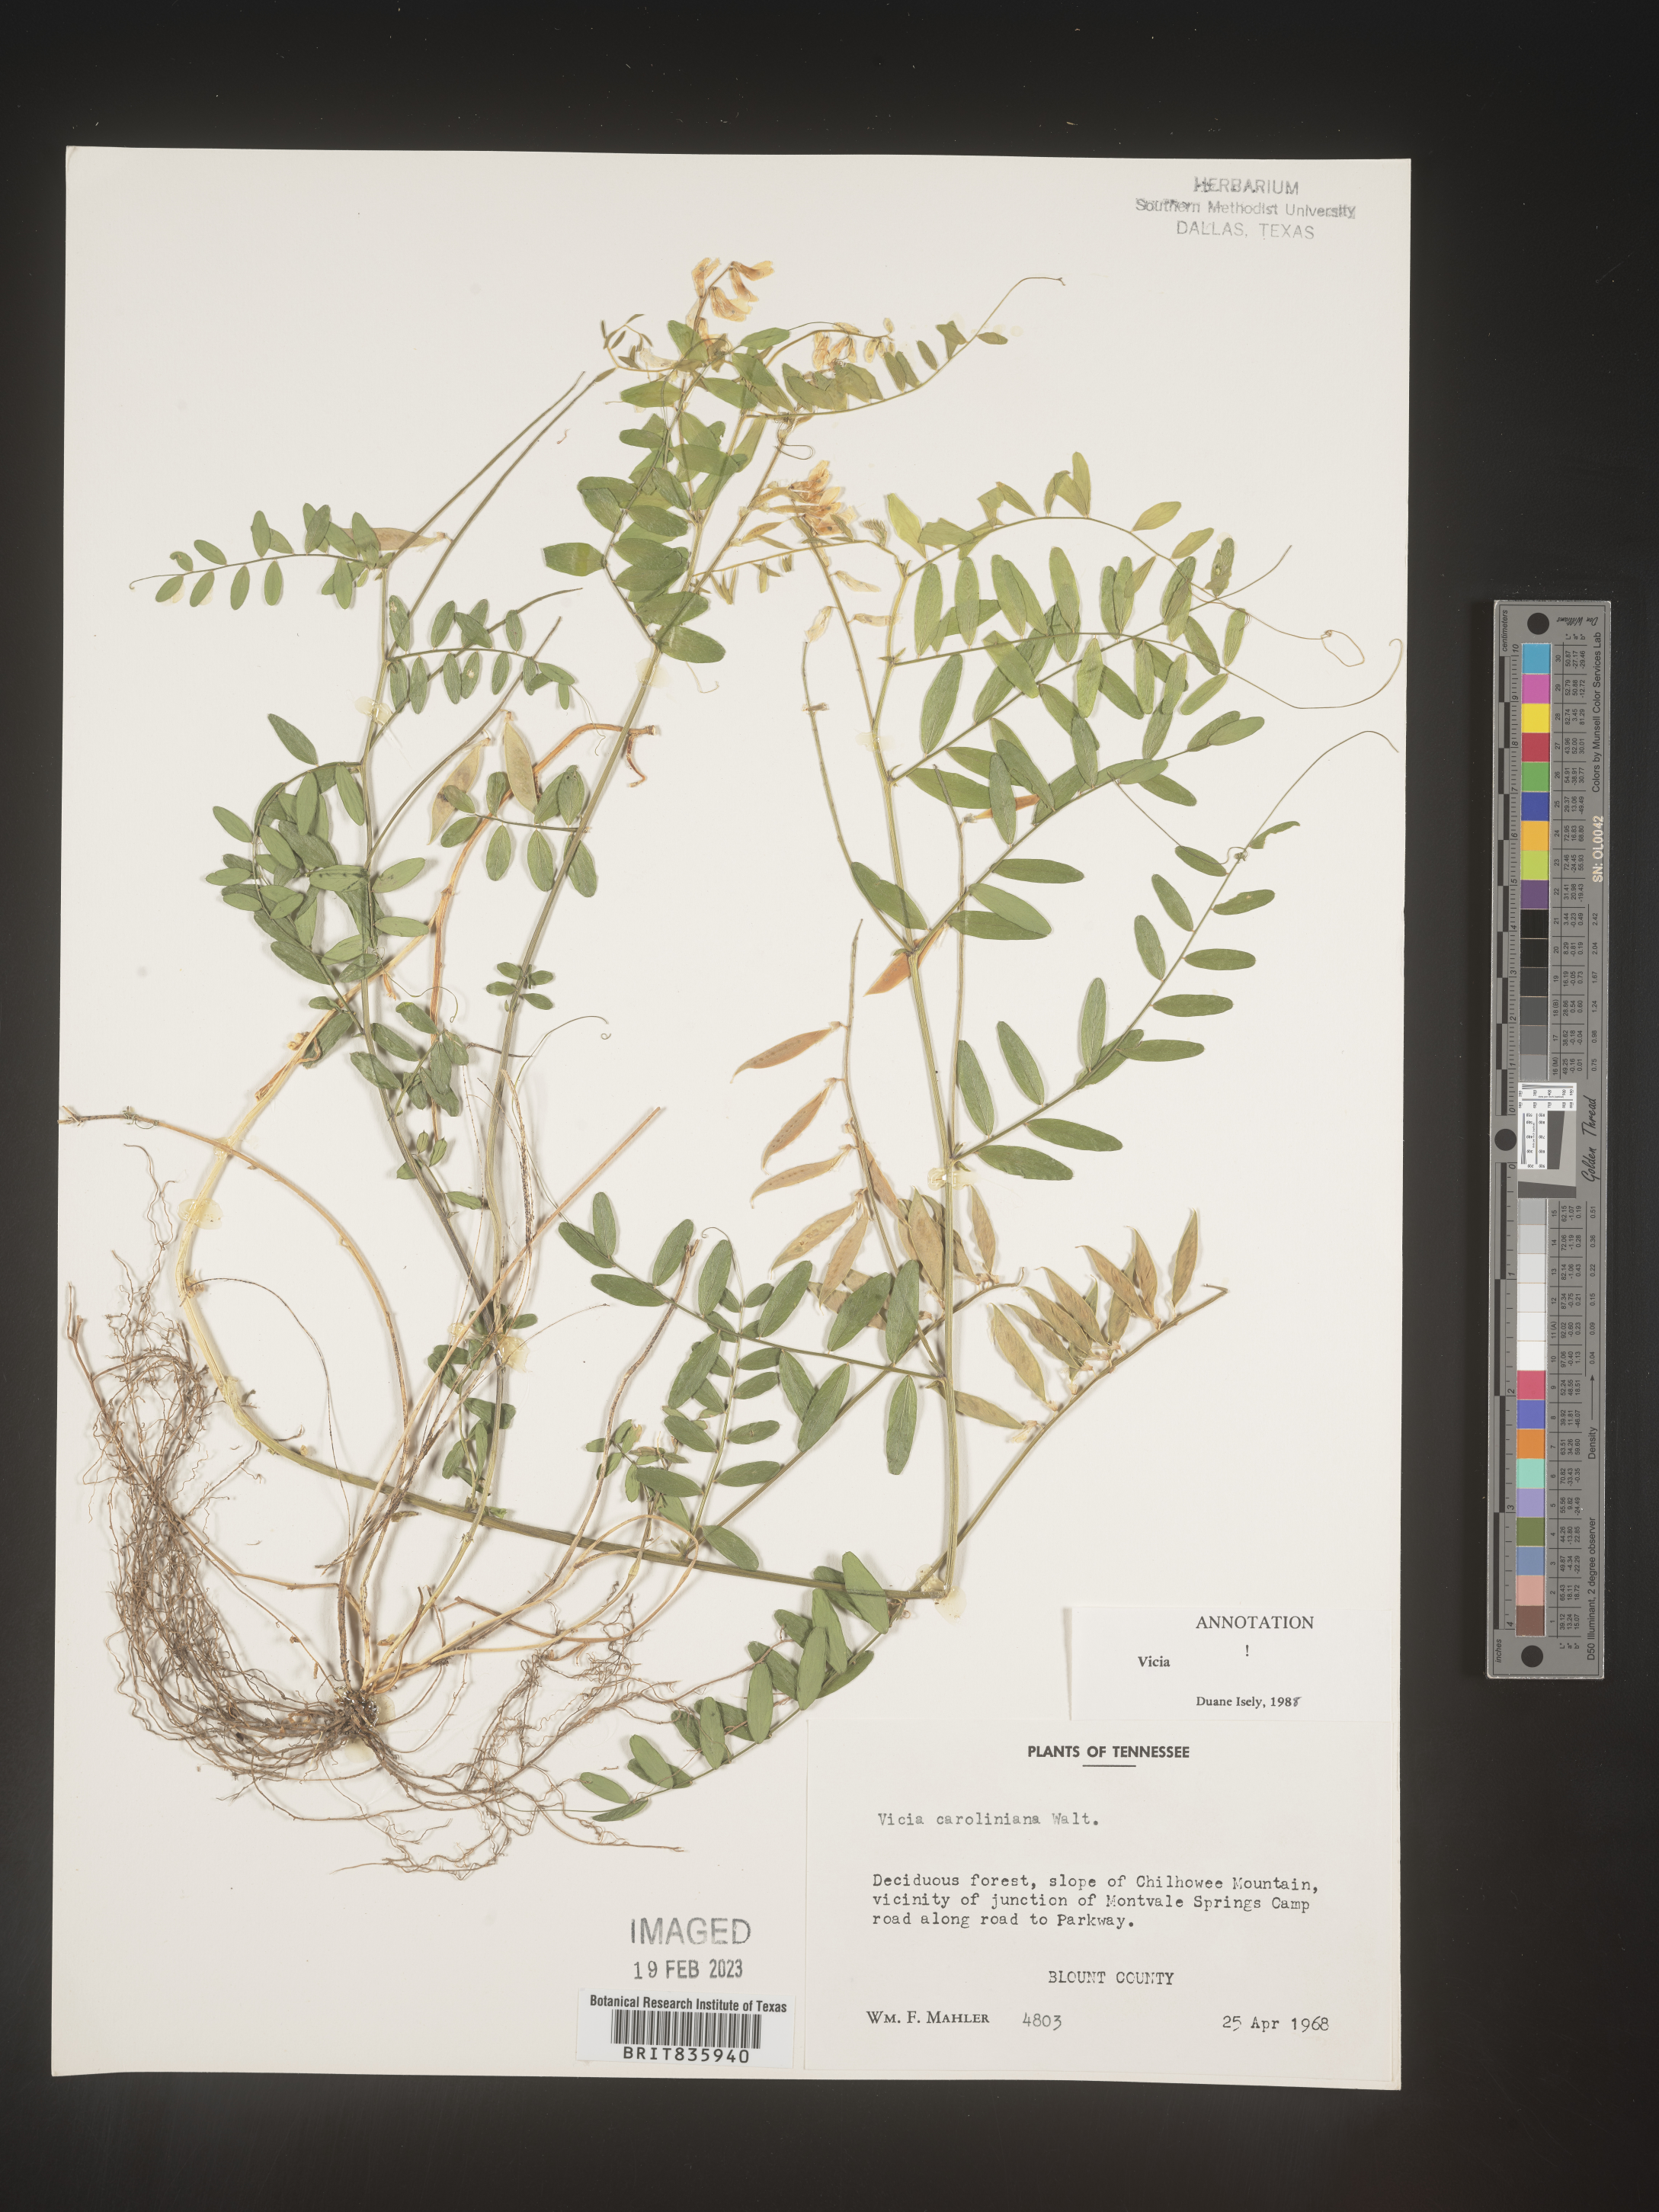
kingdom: Plantae
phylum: Tracheophyta
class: Magnoliopsida
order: Fabales
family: Fabaceae
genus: Vicia
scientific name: Vicia caroliniana
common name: Carolina vetch
